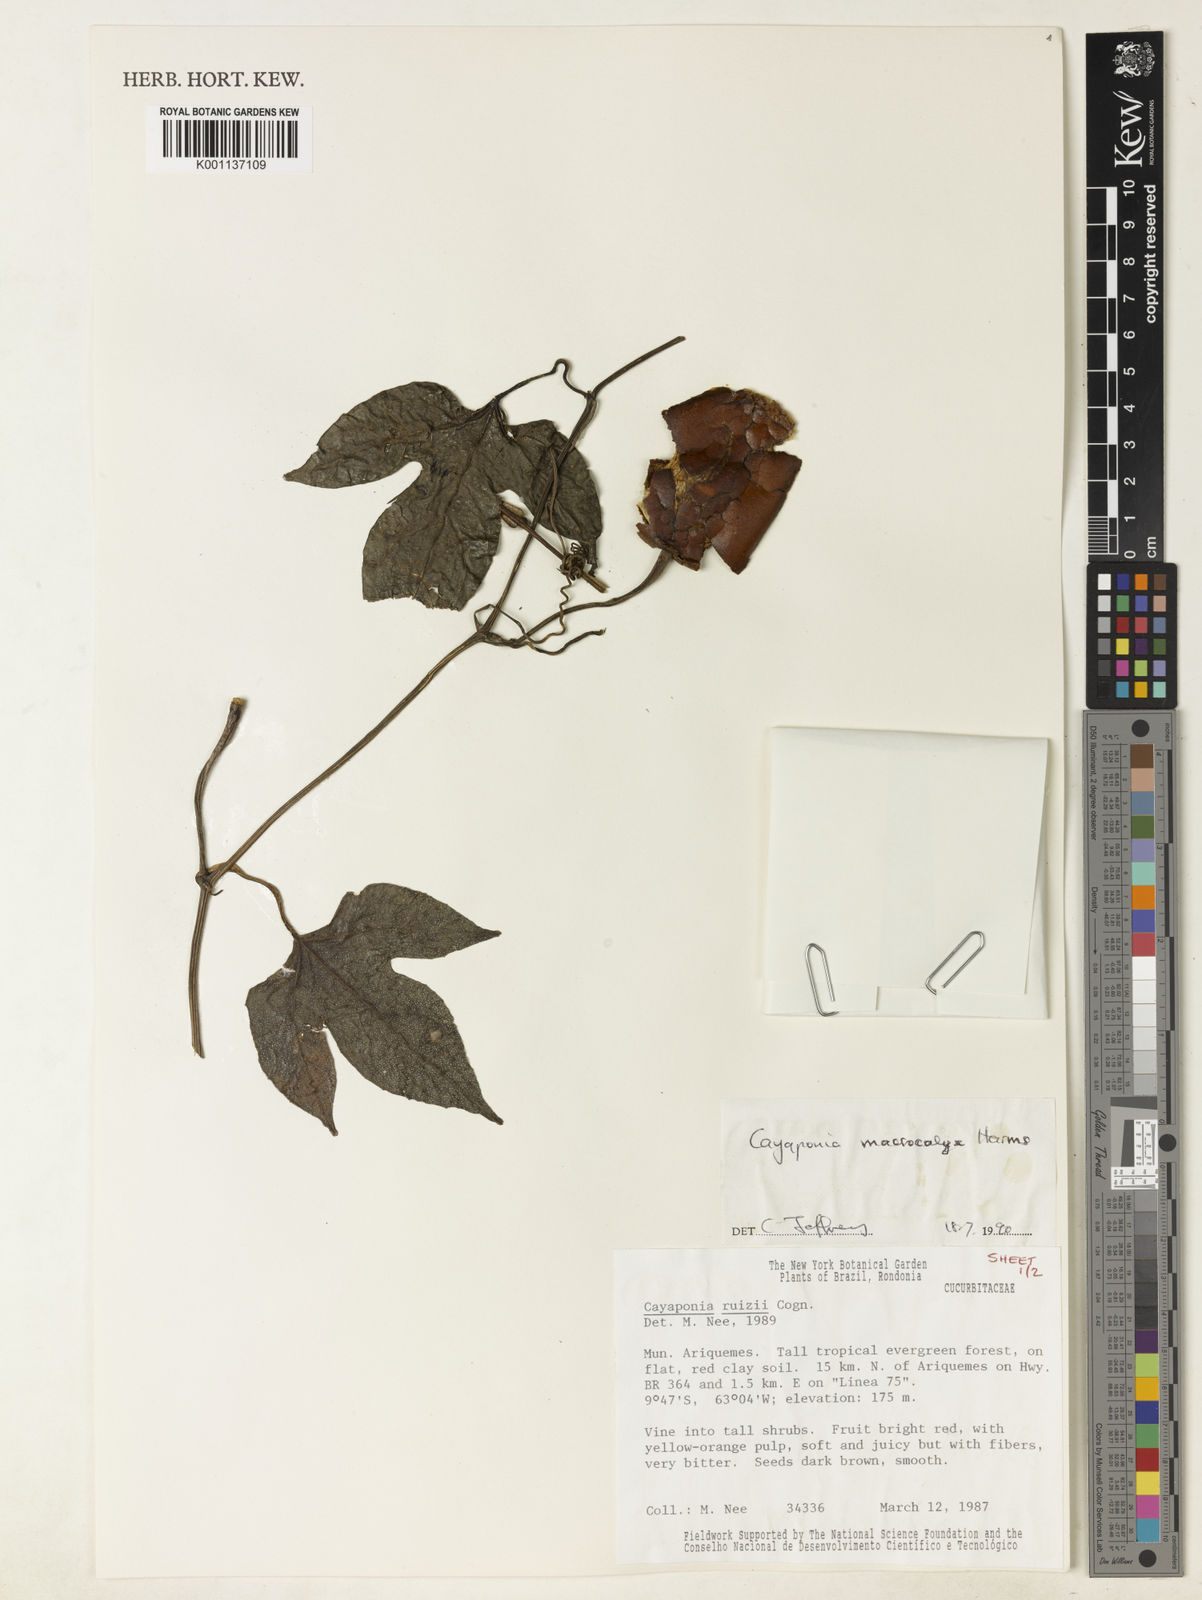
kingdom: Plantae
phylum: Tracheophyta
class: Magnoliopsida
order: Cucurbitales
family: Cucurbitaceae
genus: Cayaponia
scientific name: Cayaponia macrocalyx
